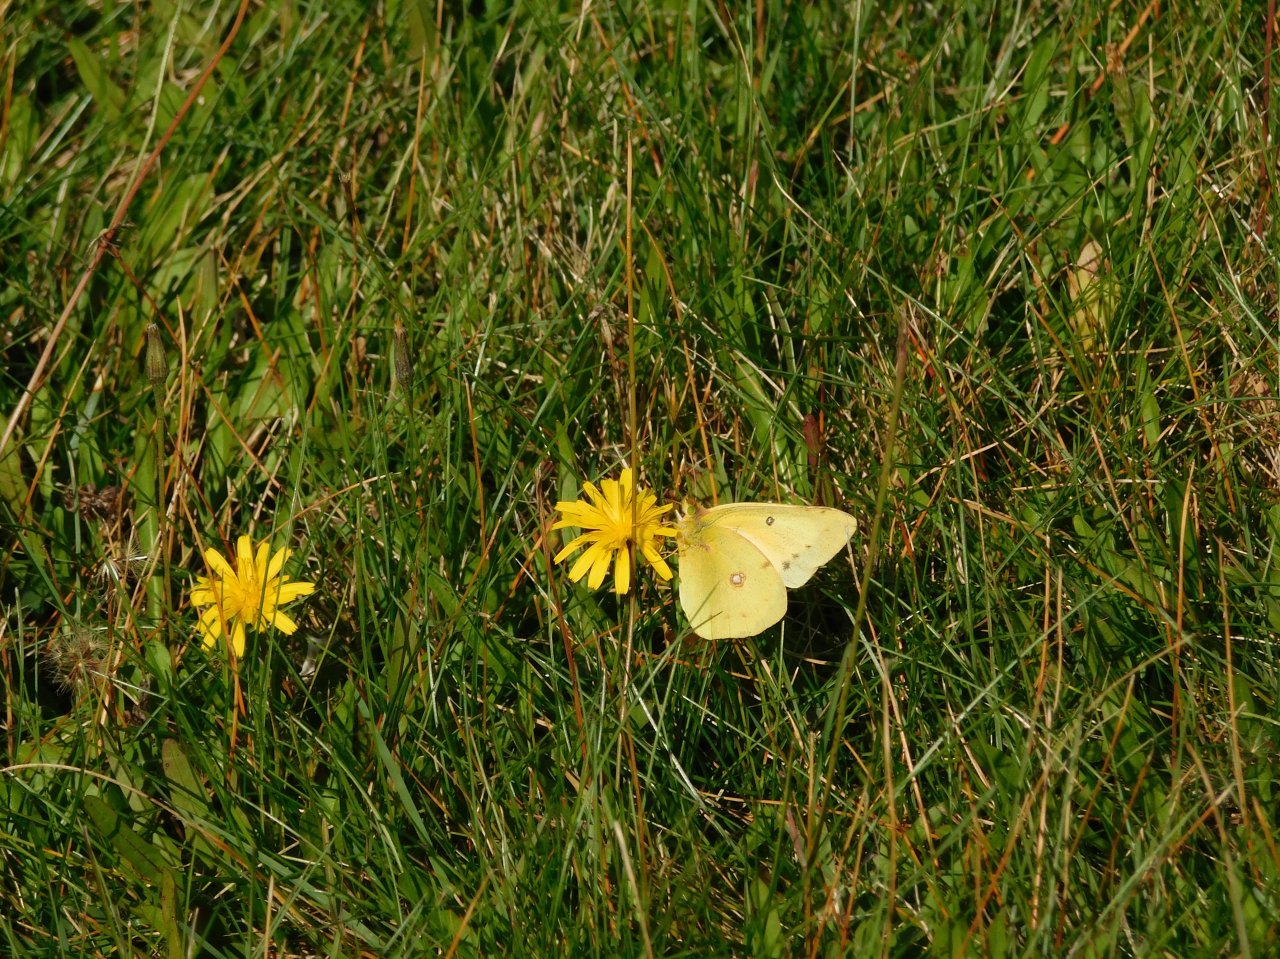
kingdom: Animalia
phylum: Arthropoda
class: Insecta
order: Lepidoptera
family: Pieridae
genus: Colias
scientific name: Colias philodice
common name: Clouded Sulphur
